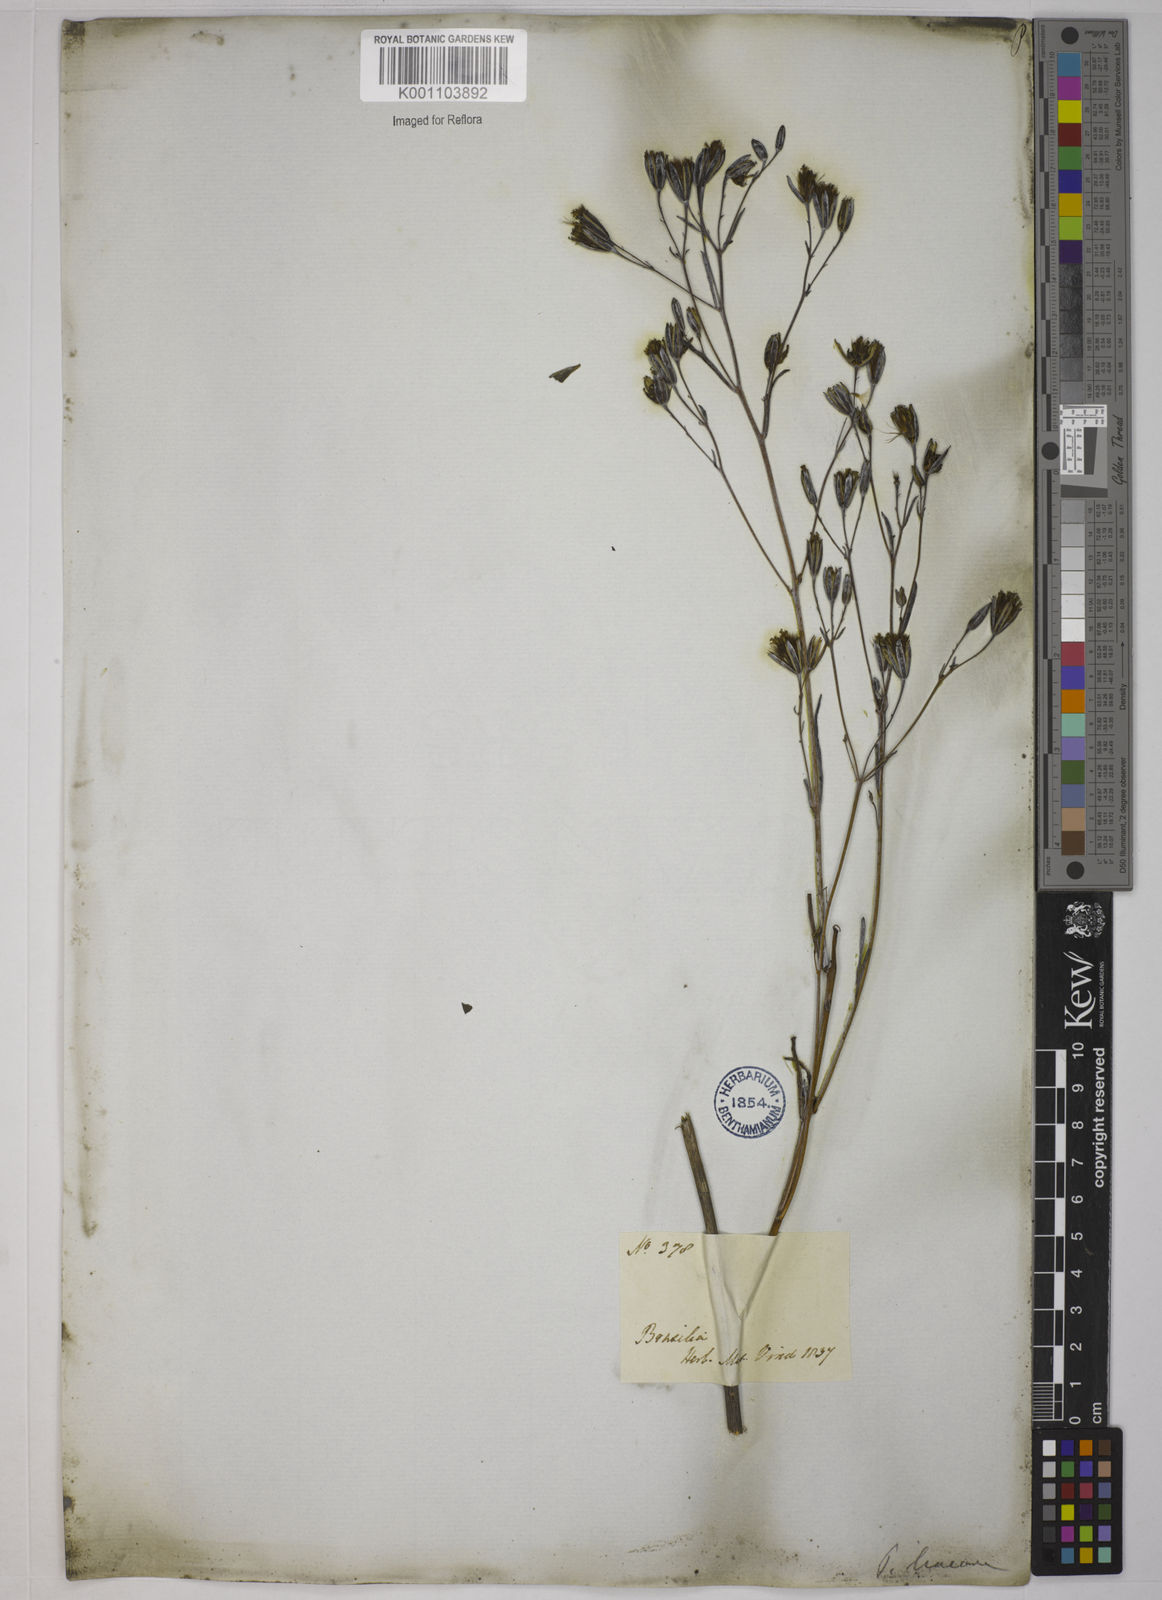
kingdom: Plantae
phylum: Tracheophyta
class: Magnoliopsida
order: Asterales
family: Asteraceae
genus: Porophyllum
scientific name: Porophyllum obscurum
